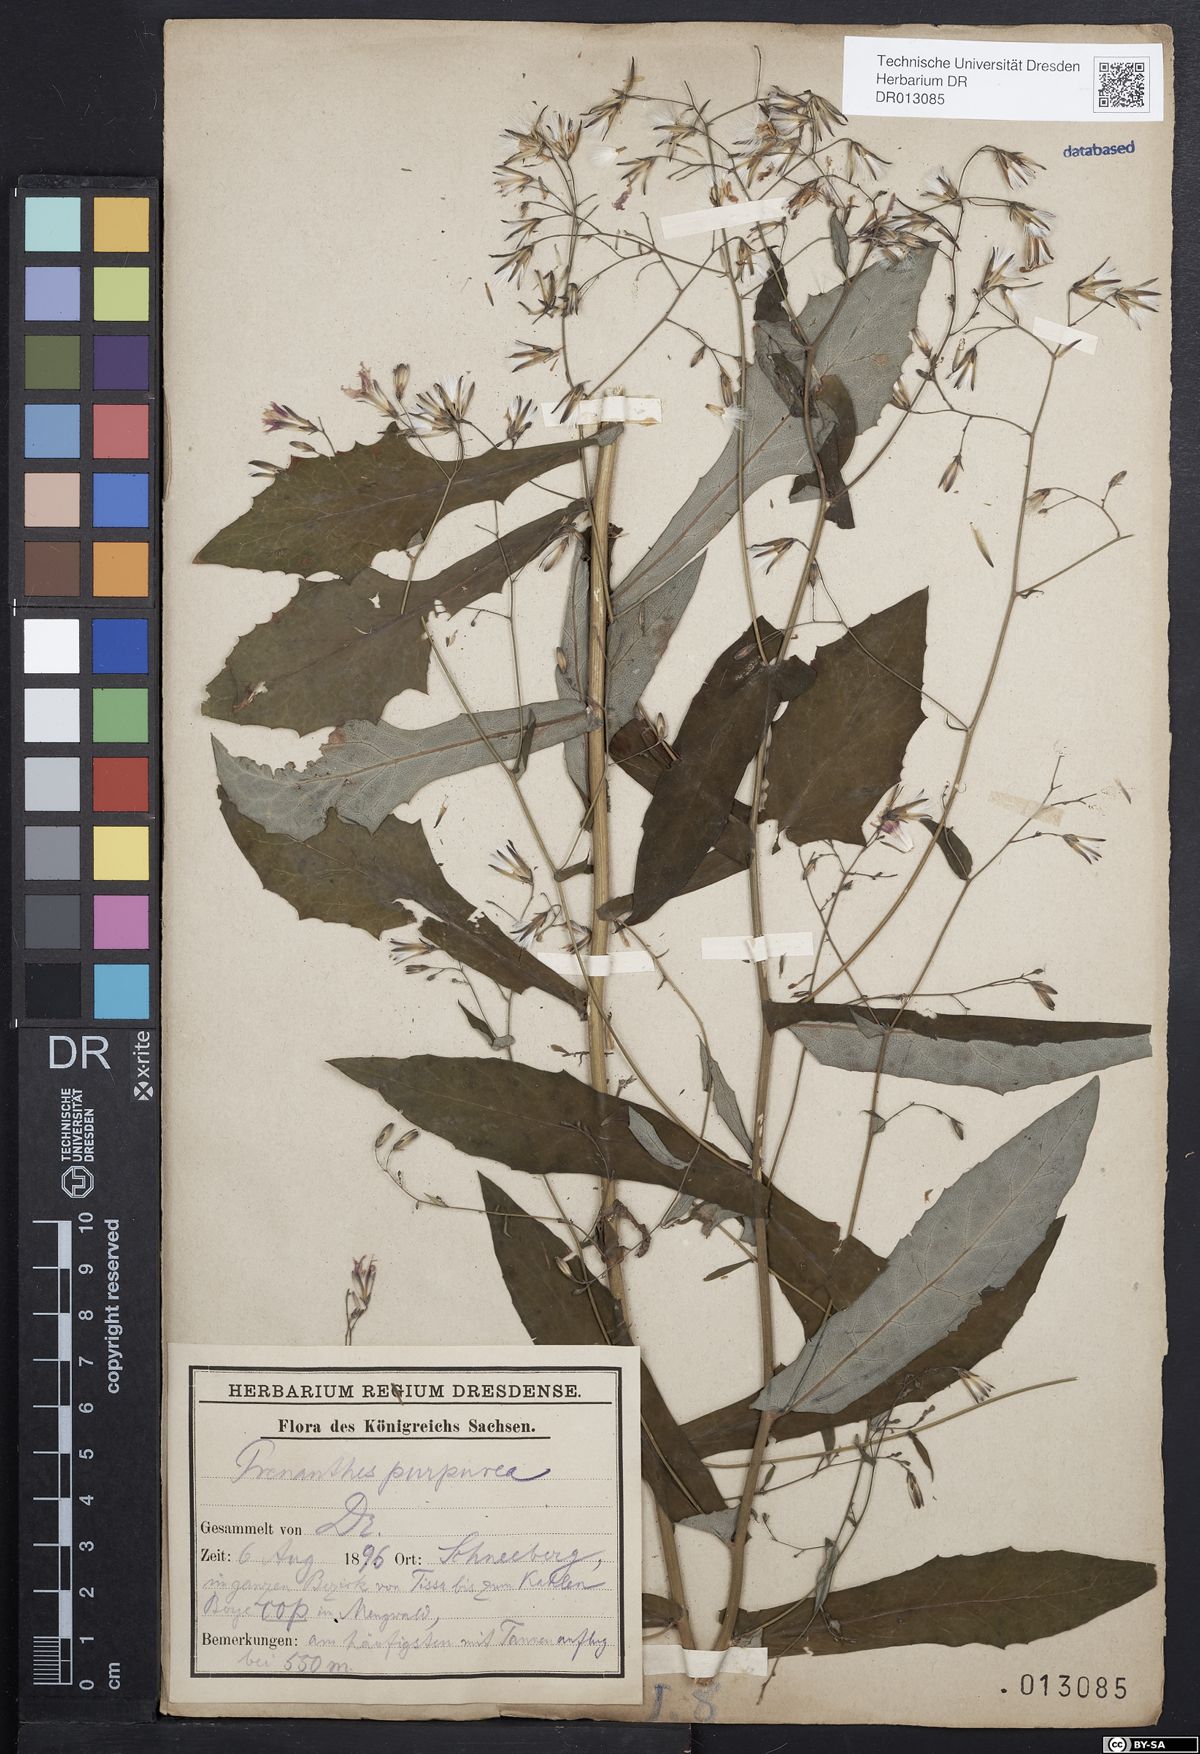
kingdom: Plantae
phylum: Tracheophyta
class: Magnoliopsida
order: Asterales
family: Asteraceae
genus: Prenanthes
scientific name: Prenanthes purpurea
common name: Purple lettuce
